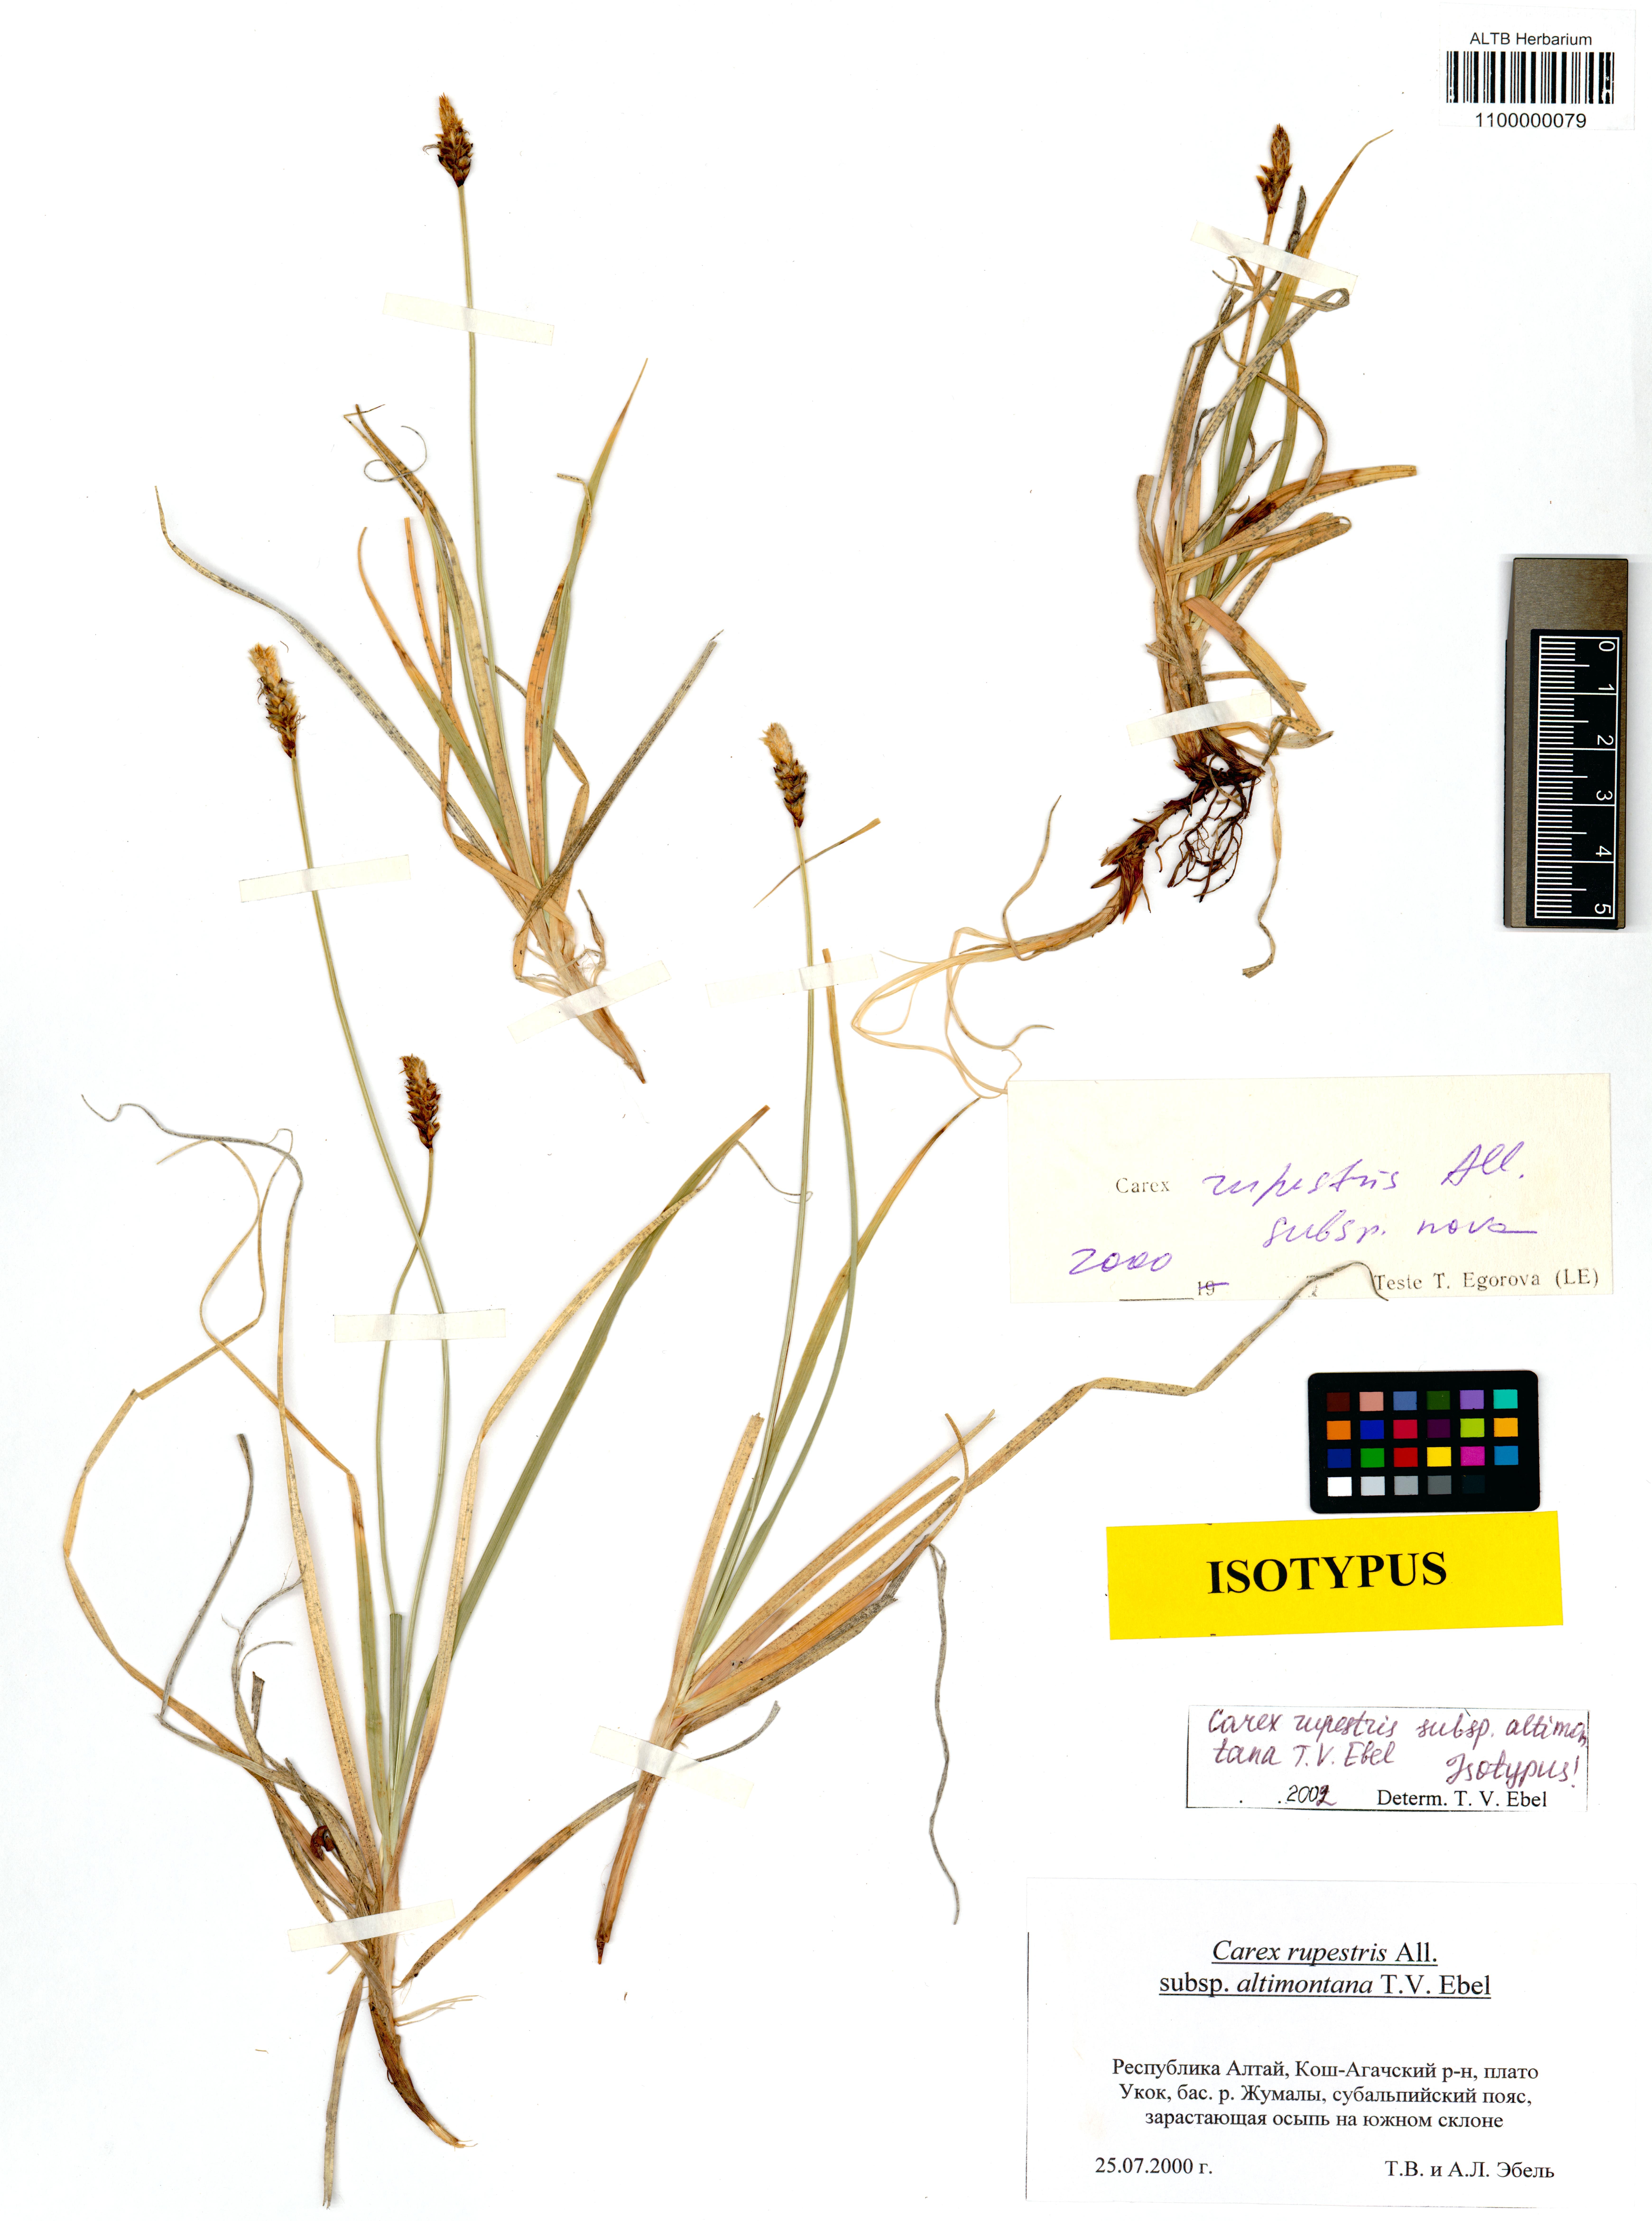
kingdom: Plantae
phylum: Tracheophyta
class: Liliopsida
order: Poales
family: Cyperaceae
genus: Carex
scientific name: Carex rupestris
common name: Rock sedge
